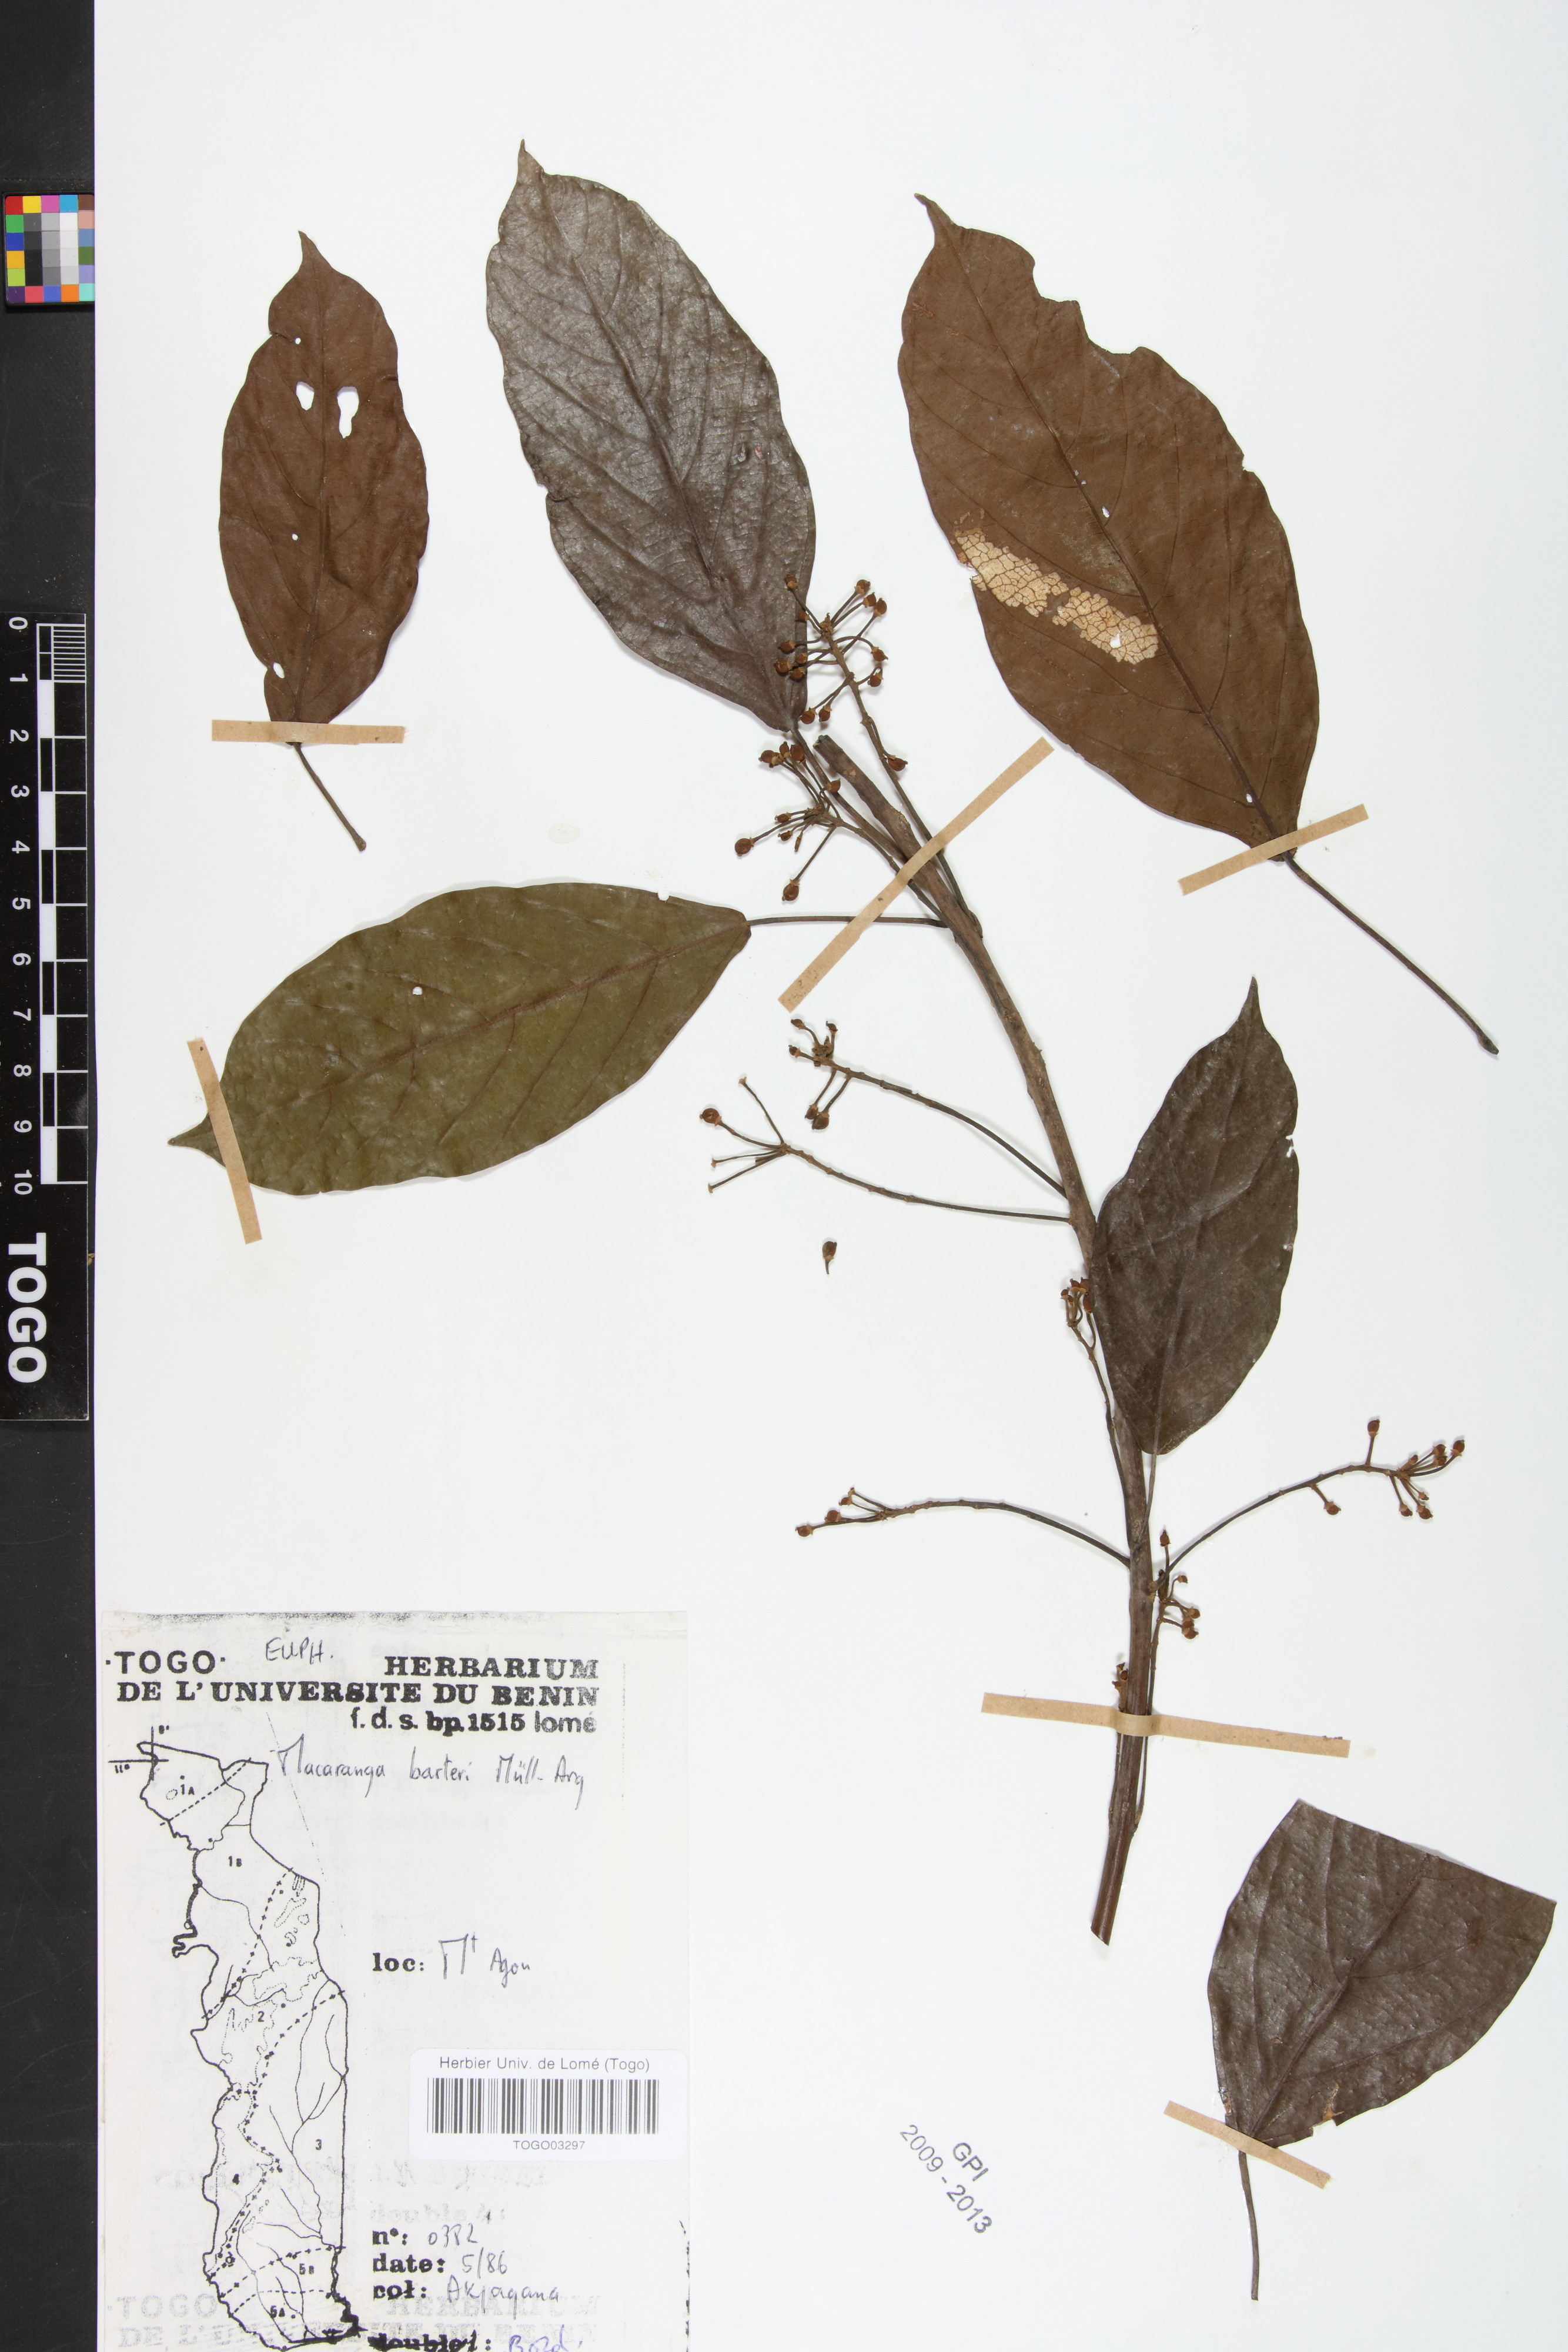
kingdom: Plantae
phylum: Tracheophyta
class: Magnoliopsida
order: Malpighiales
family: Euphorbiaceae
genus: Macaranga
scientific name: Macaranga barteri
